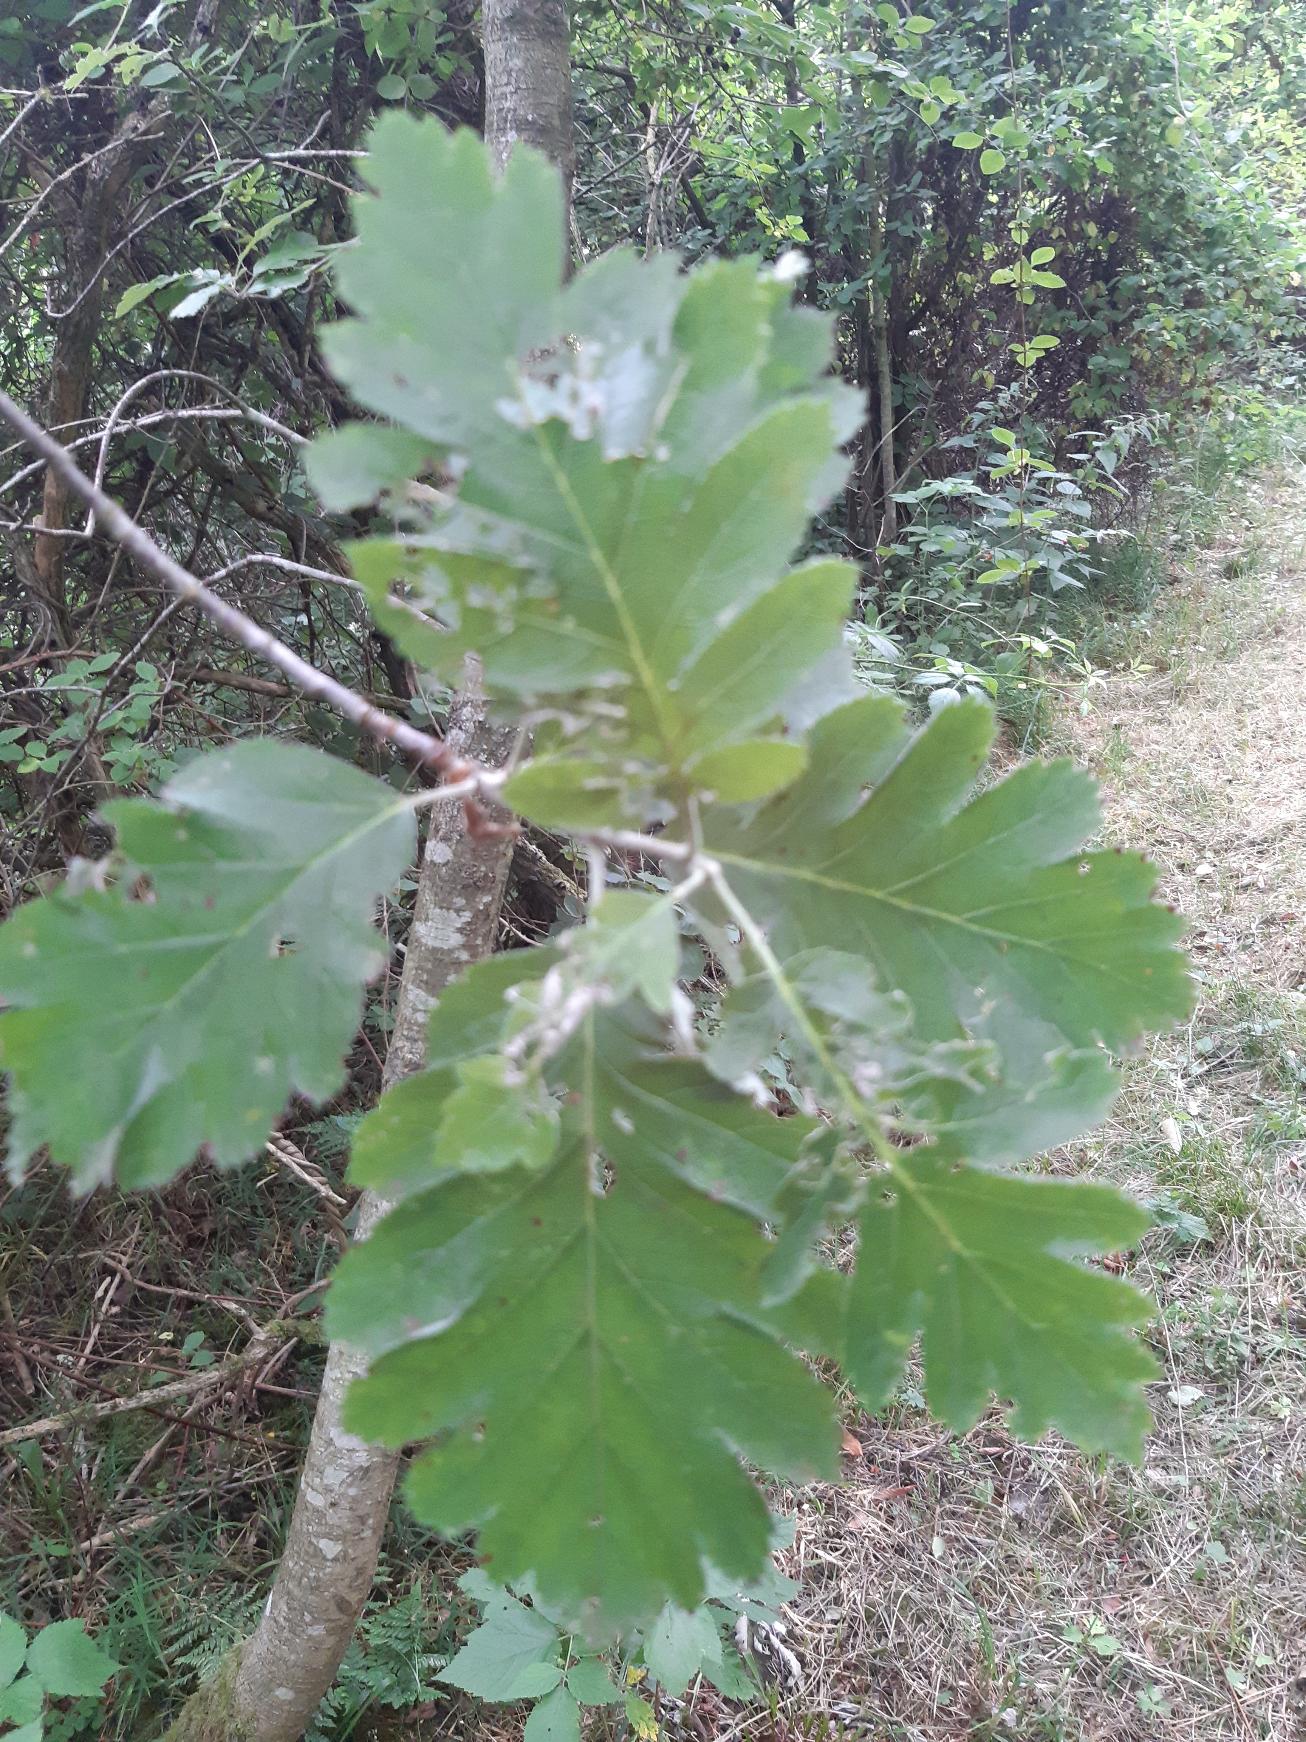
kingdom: Plantae
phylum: Tracheophyta
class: Magnoliopsida
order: Rosales
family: Rosaceae
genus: Scandosorbus
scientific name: Scandosorbus intermedia
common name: Selje-røn
